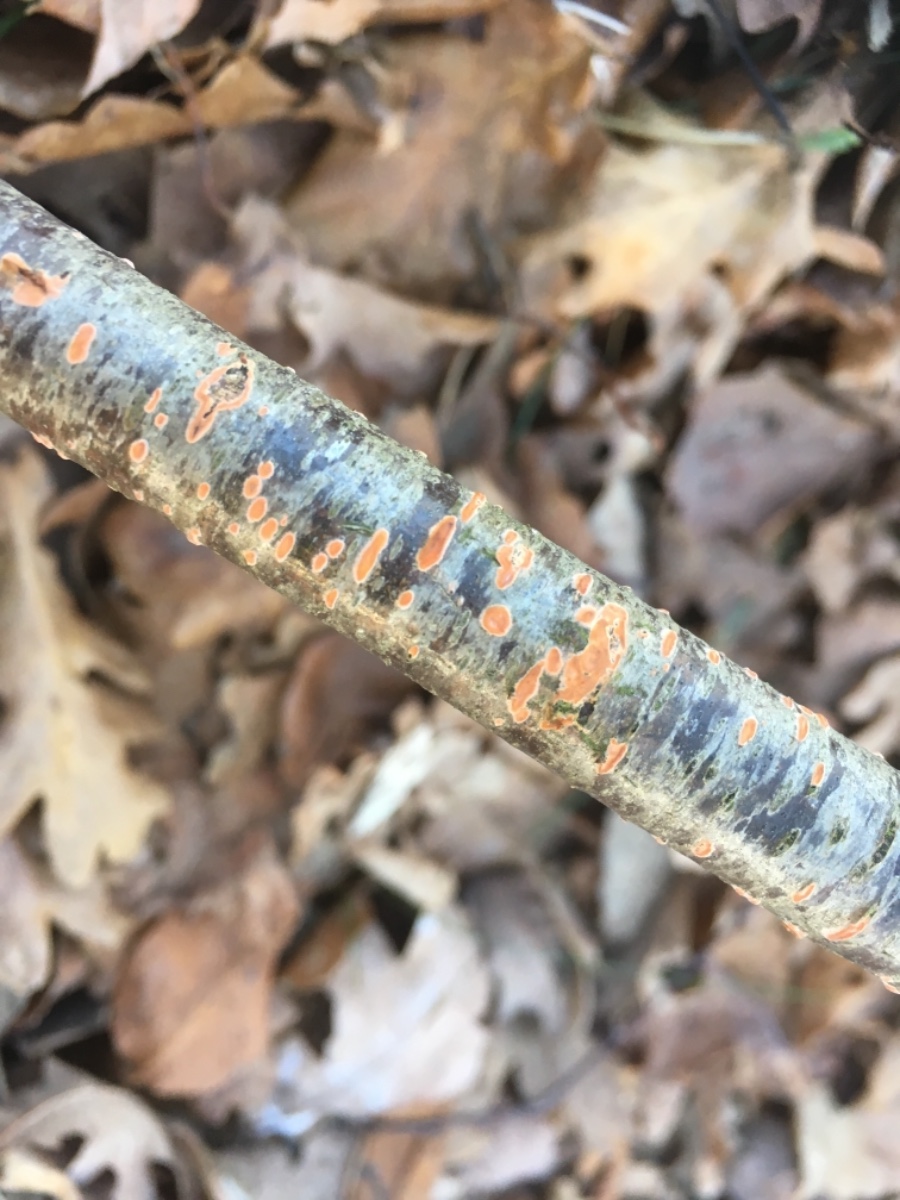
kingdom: Fungi
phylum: Basidiomycota
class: Agaricomycetes
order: Russulales
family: Peniophoraceae
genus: Peniophora
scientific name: Peniophora incarnata
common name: laksefarvet voksskind
